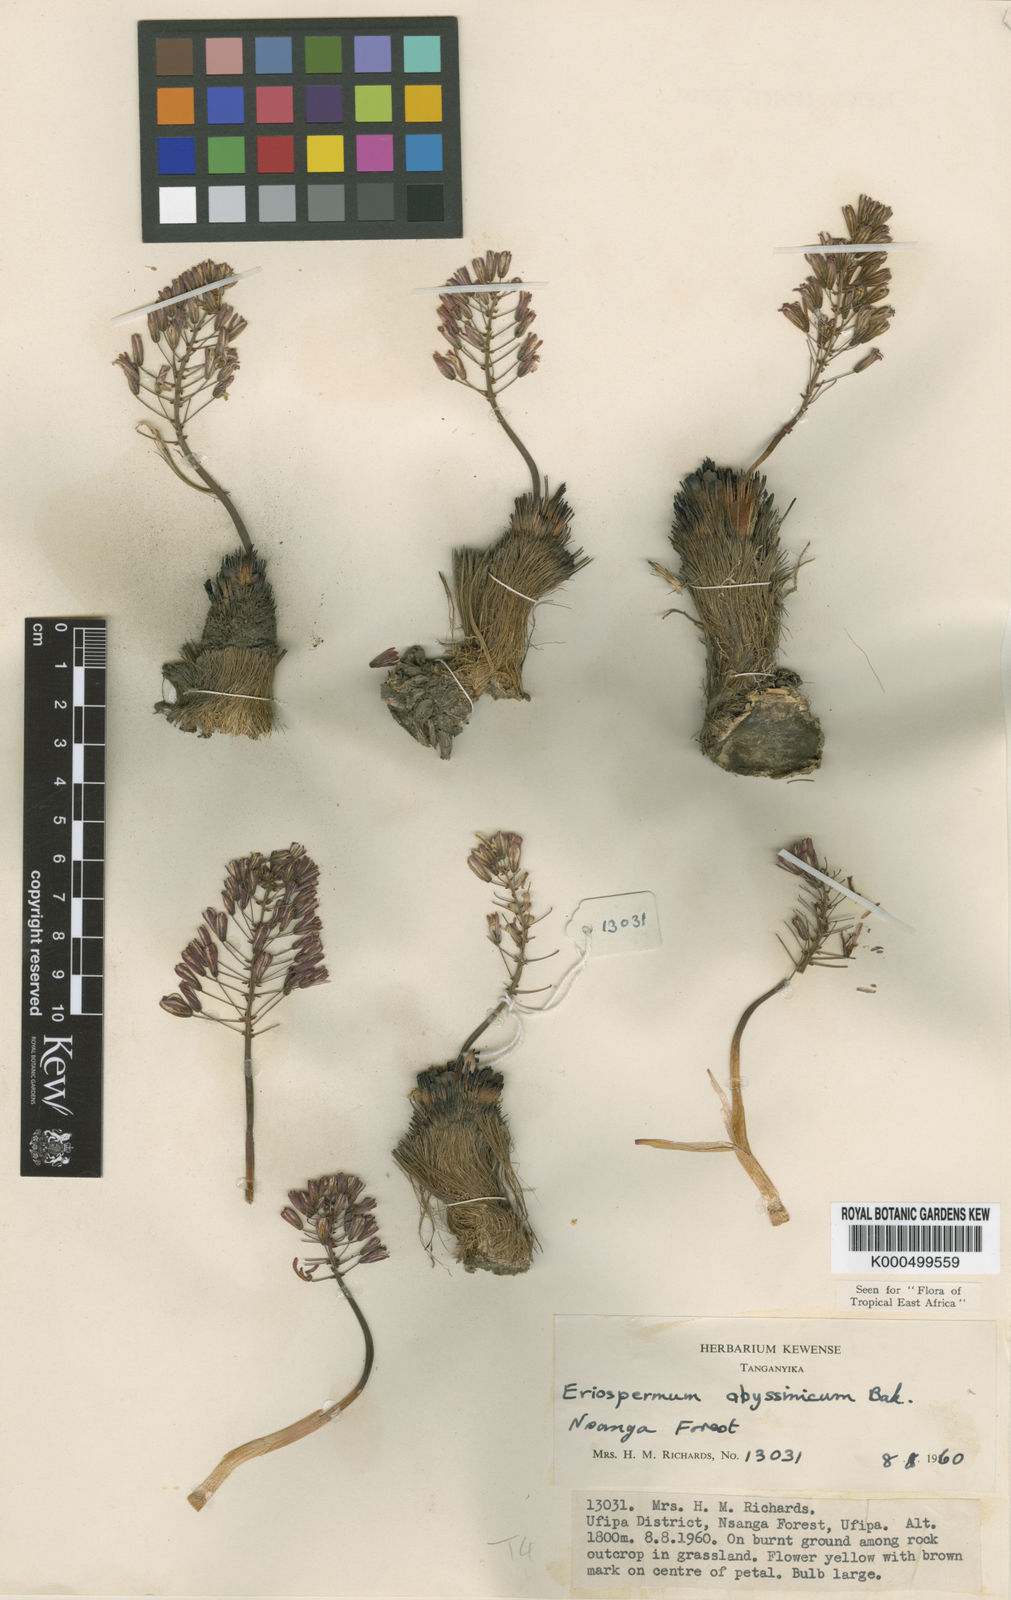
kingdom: Plantae
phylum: Tracheophyta
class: Liliopsida
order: Asparagales
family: Asparagaceae
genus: Eriospermum
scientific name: Eriospermum abyssinicum
